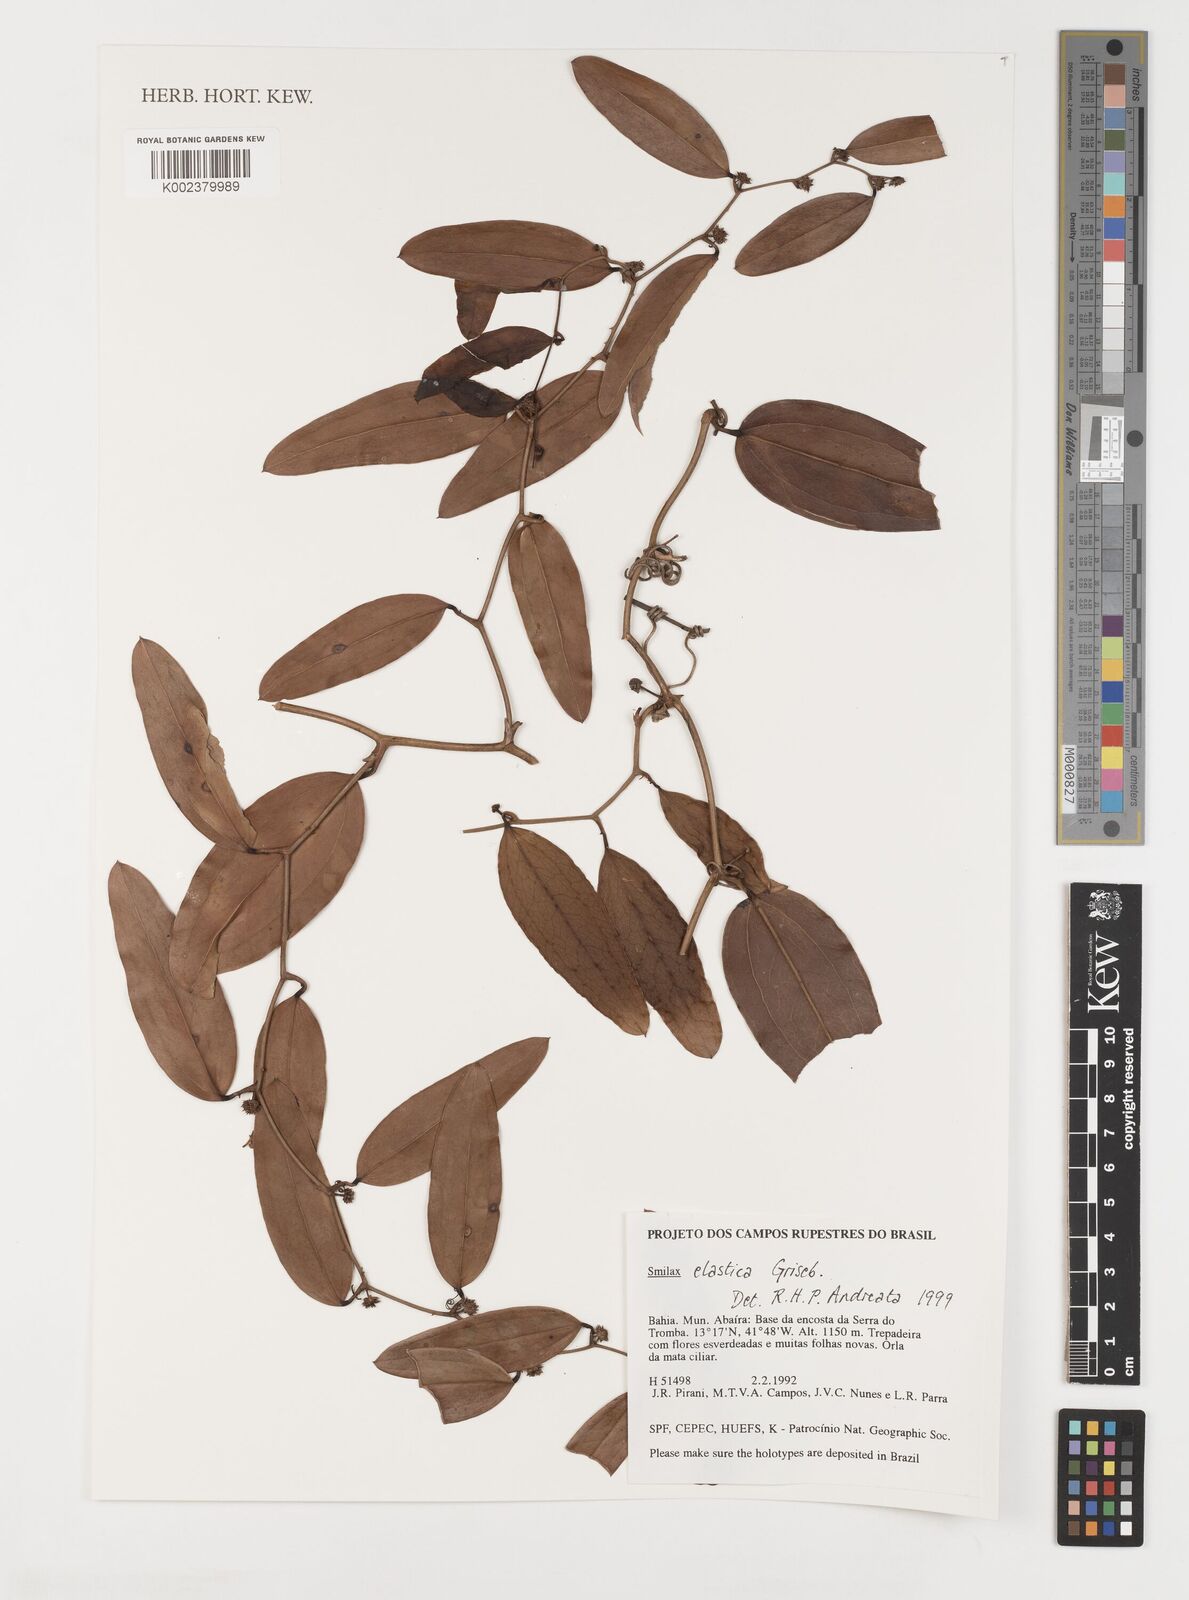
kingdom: Plantae
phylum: Tracheophyta
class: Liliopsida
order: Liliales
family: Smilacaceae
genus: Smilax
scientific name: Smilax elastica
